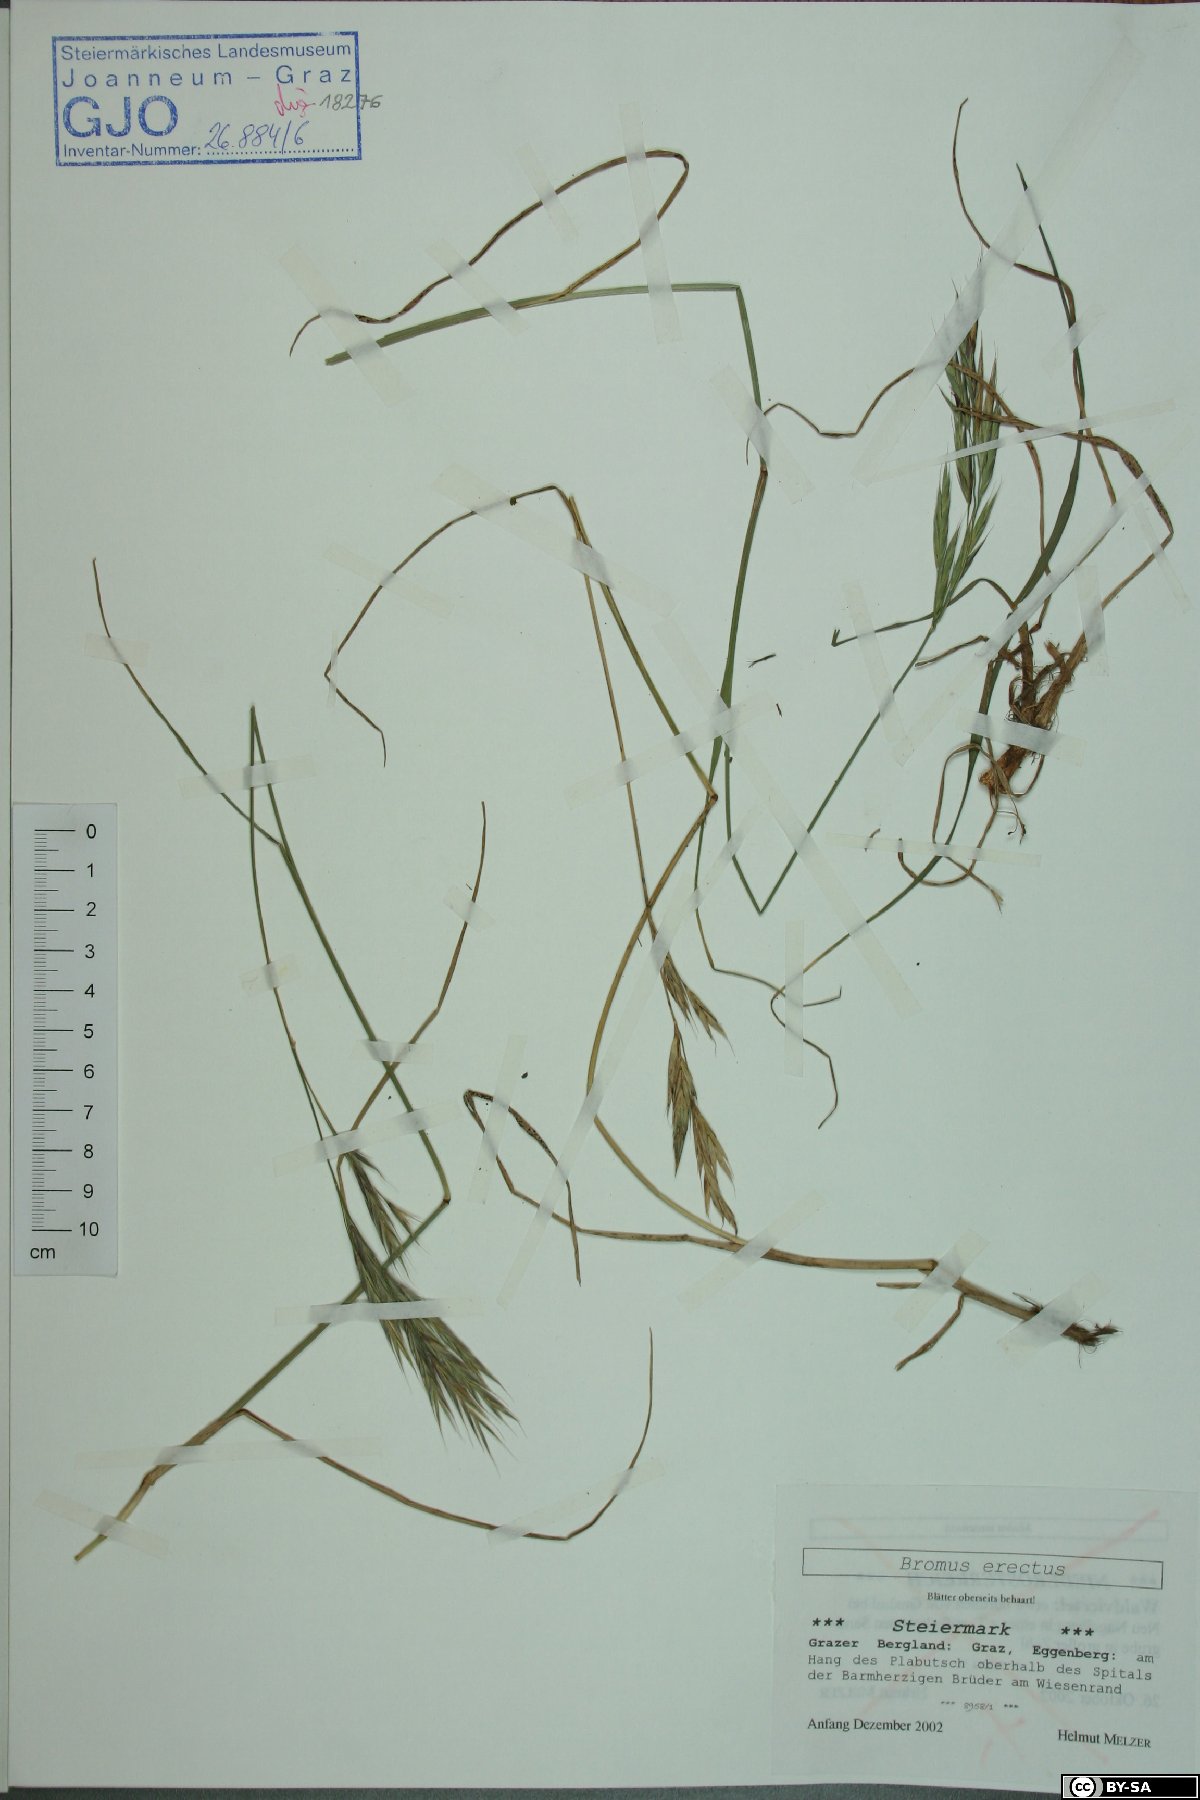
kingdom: Plantae
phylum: Tracheophyta
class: Liliopsida
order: Poales
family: Poaceae
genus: Bromus
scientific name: Bromus erectus
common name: Erect brome
